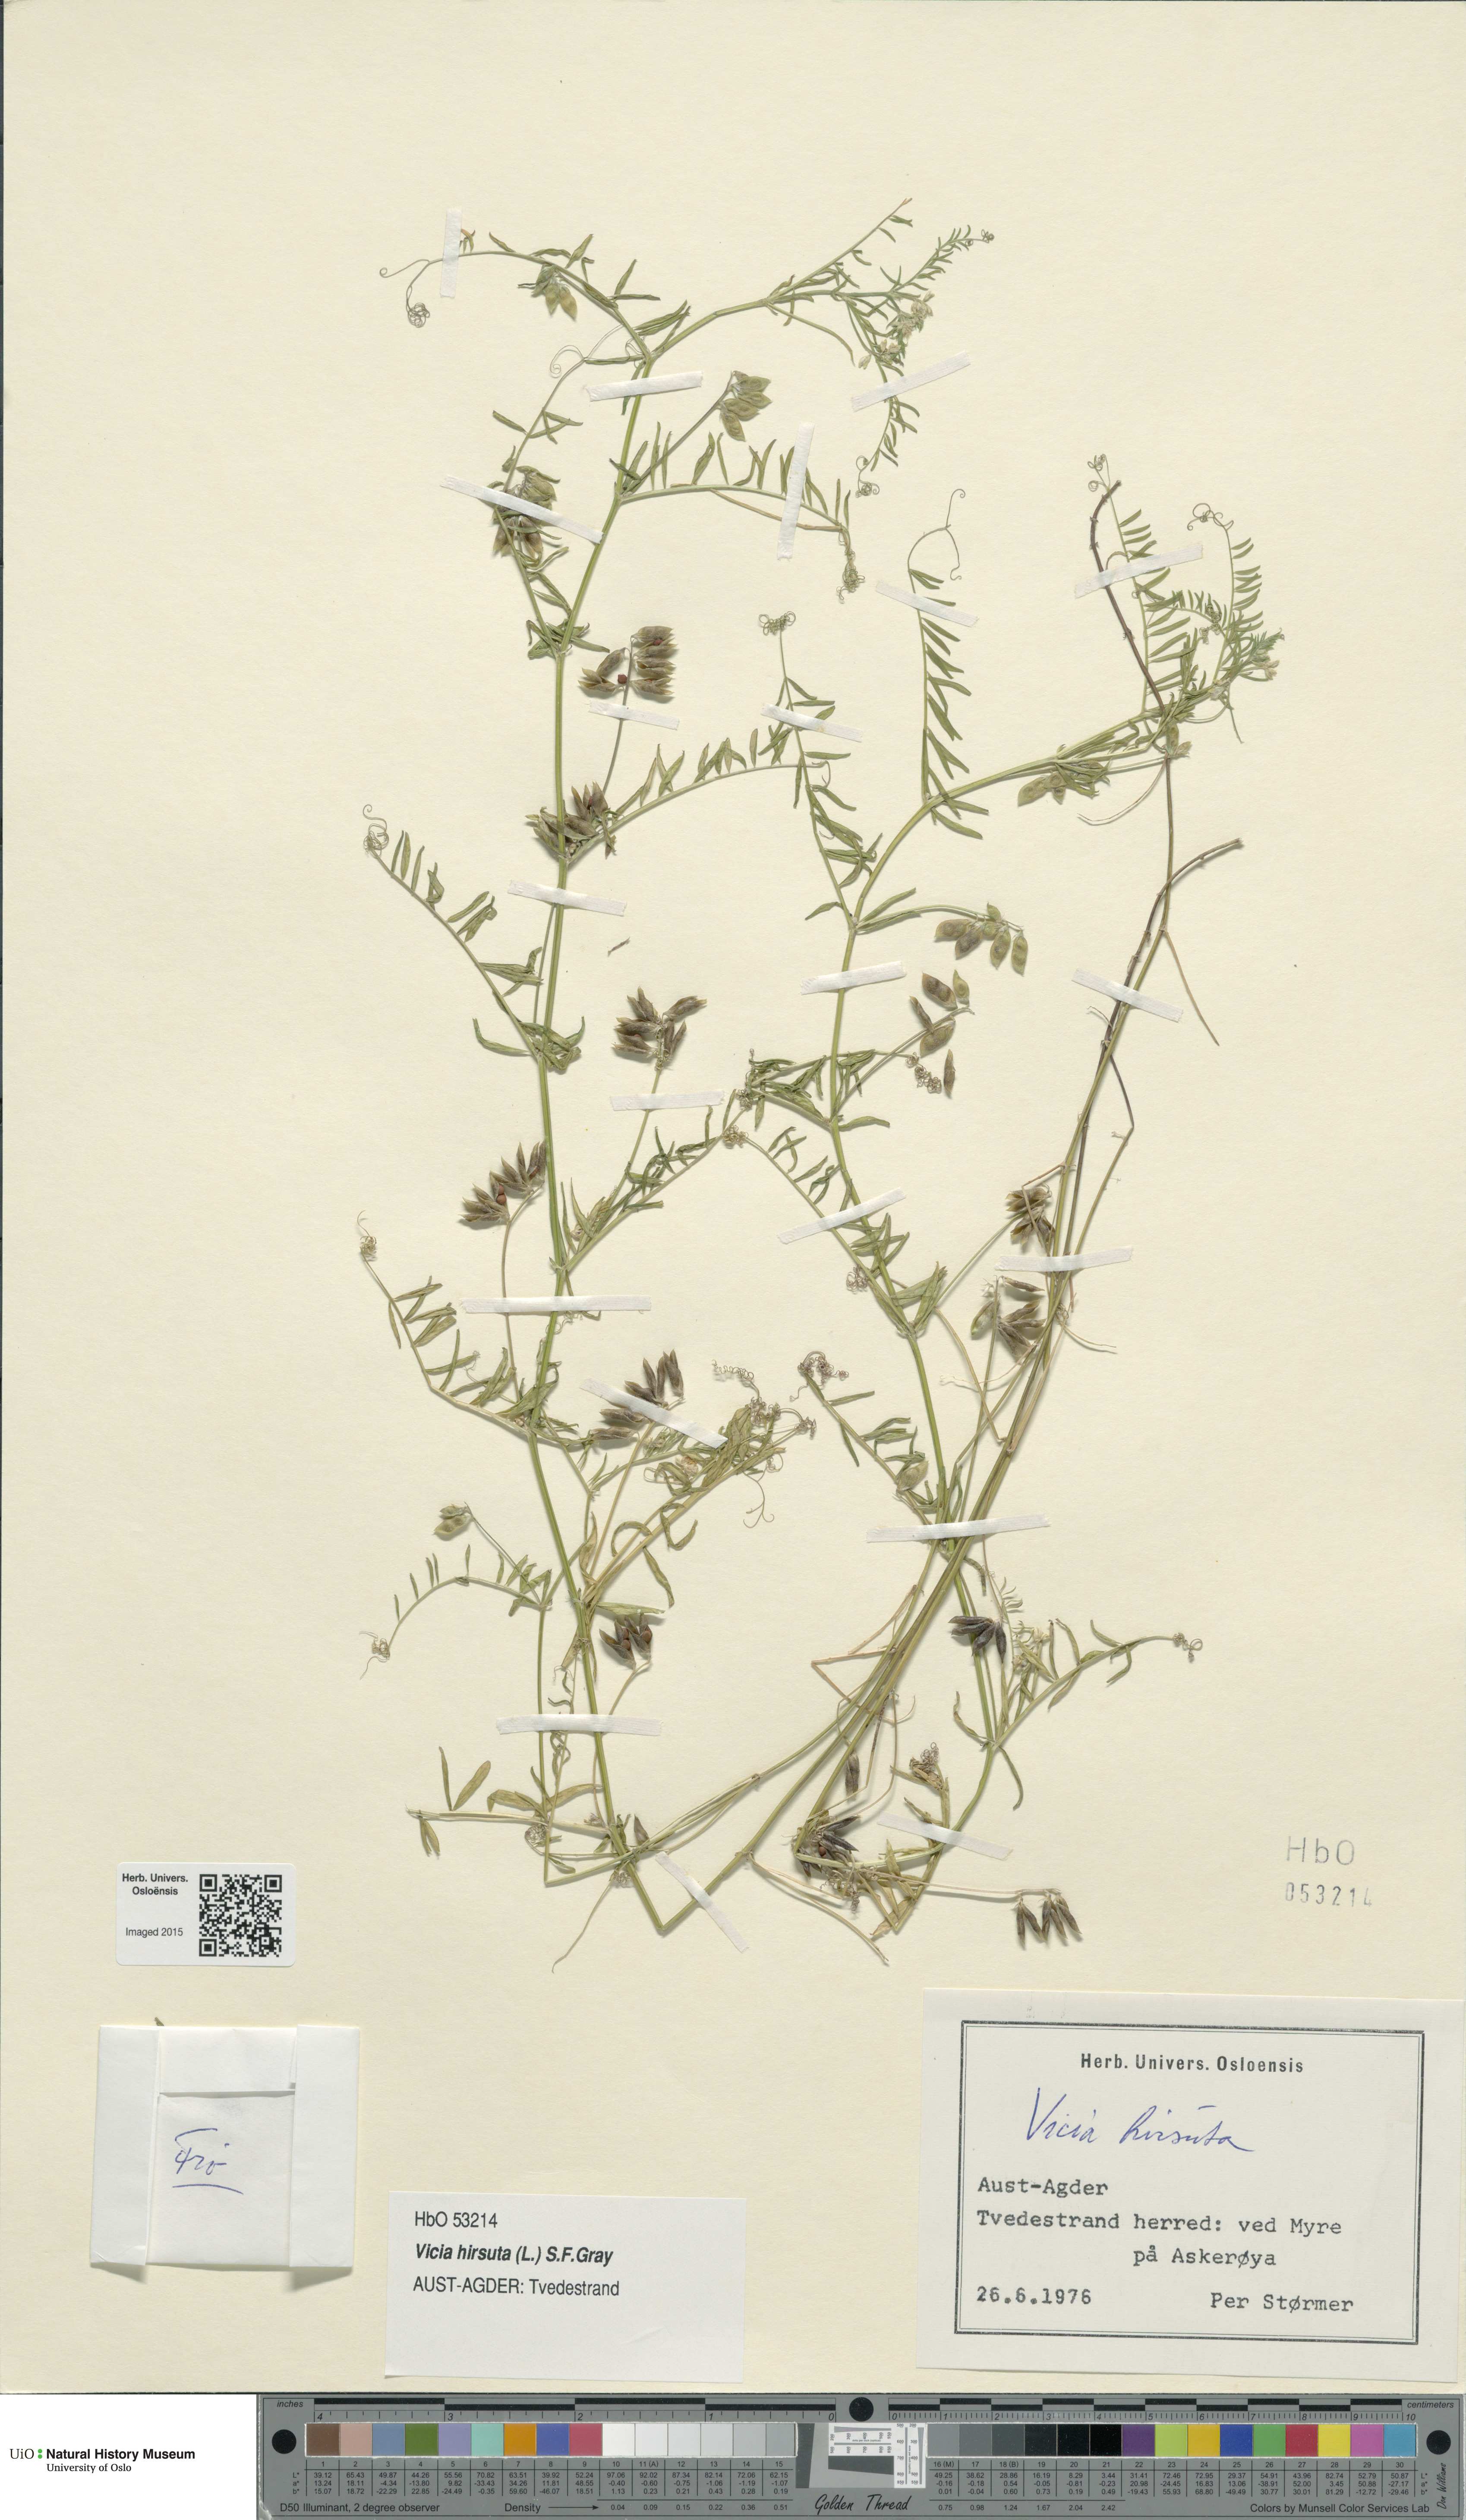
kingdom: Plantae
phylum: Tracheophyta
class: Magnoliopsida
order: Fabales
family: Fabaceae
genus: Vicia
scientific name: Vicia hirsuta
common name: Tiny vetch
